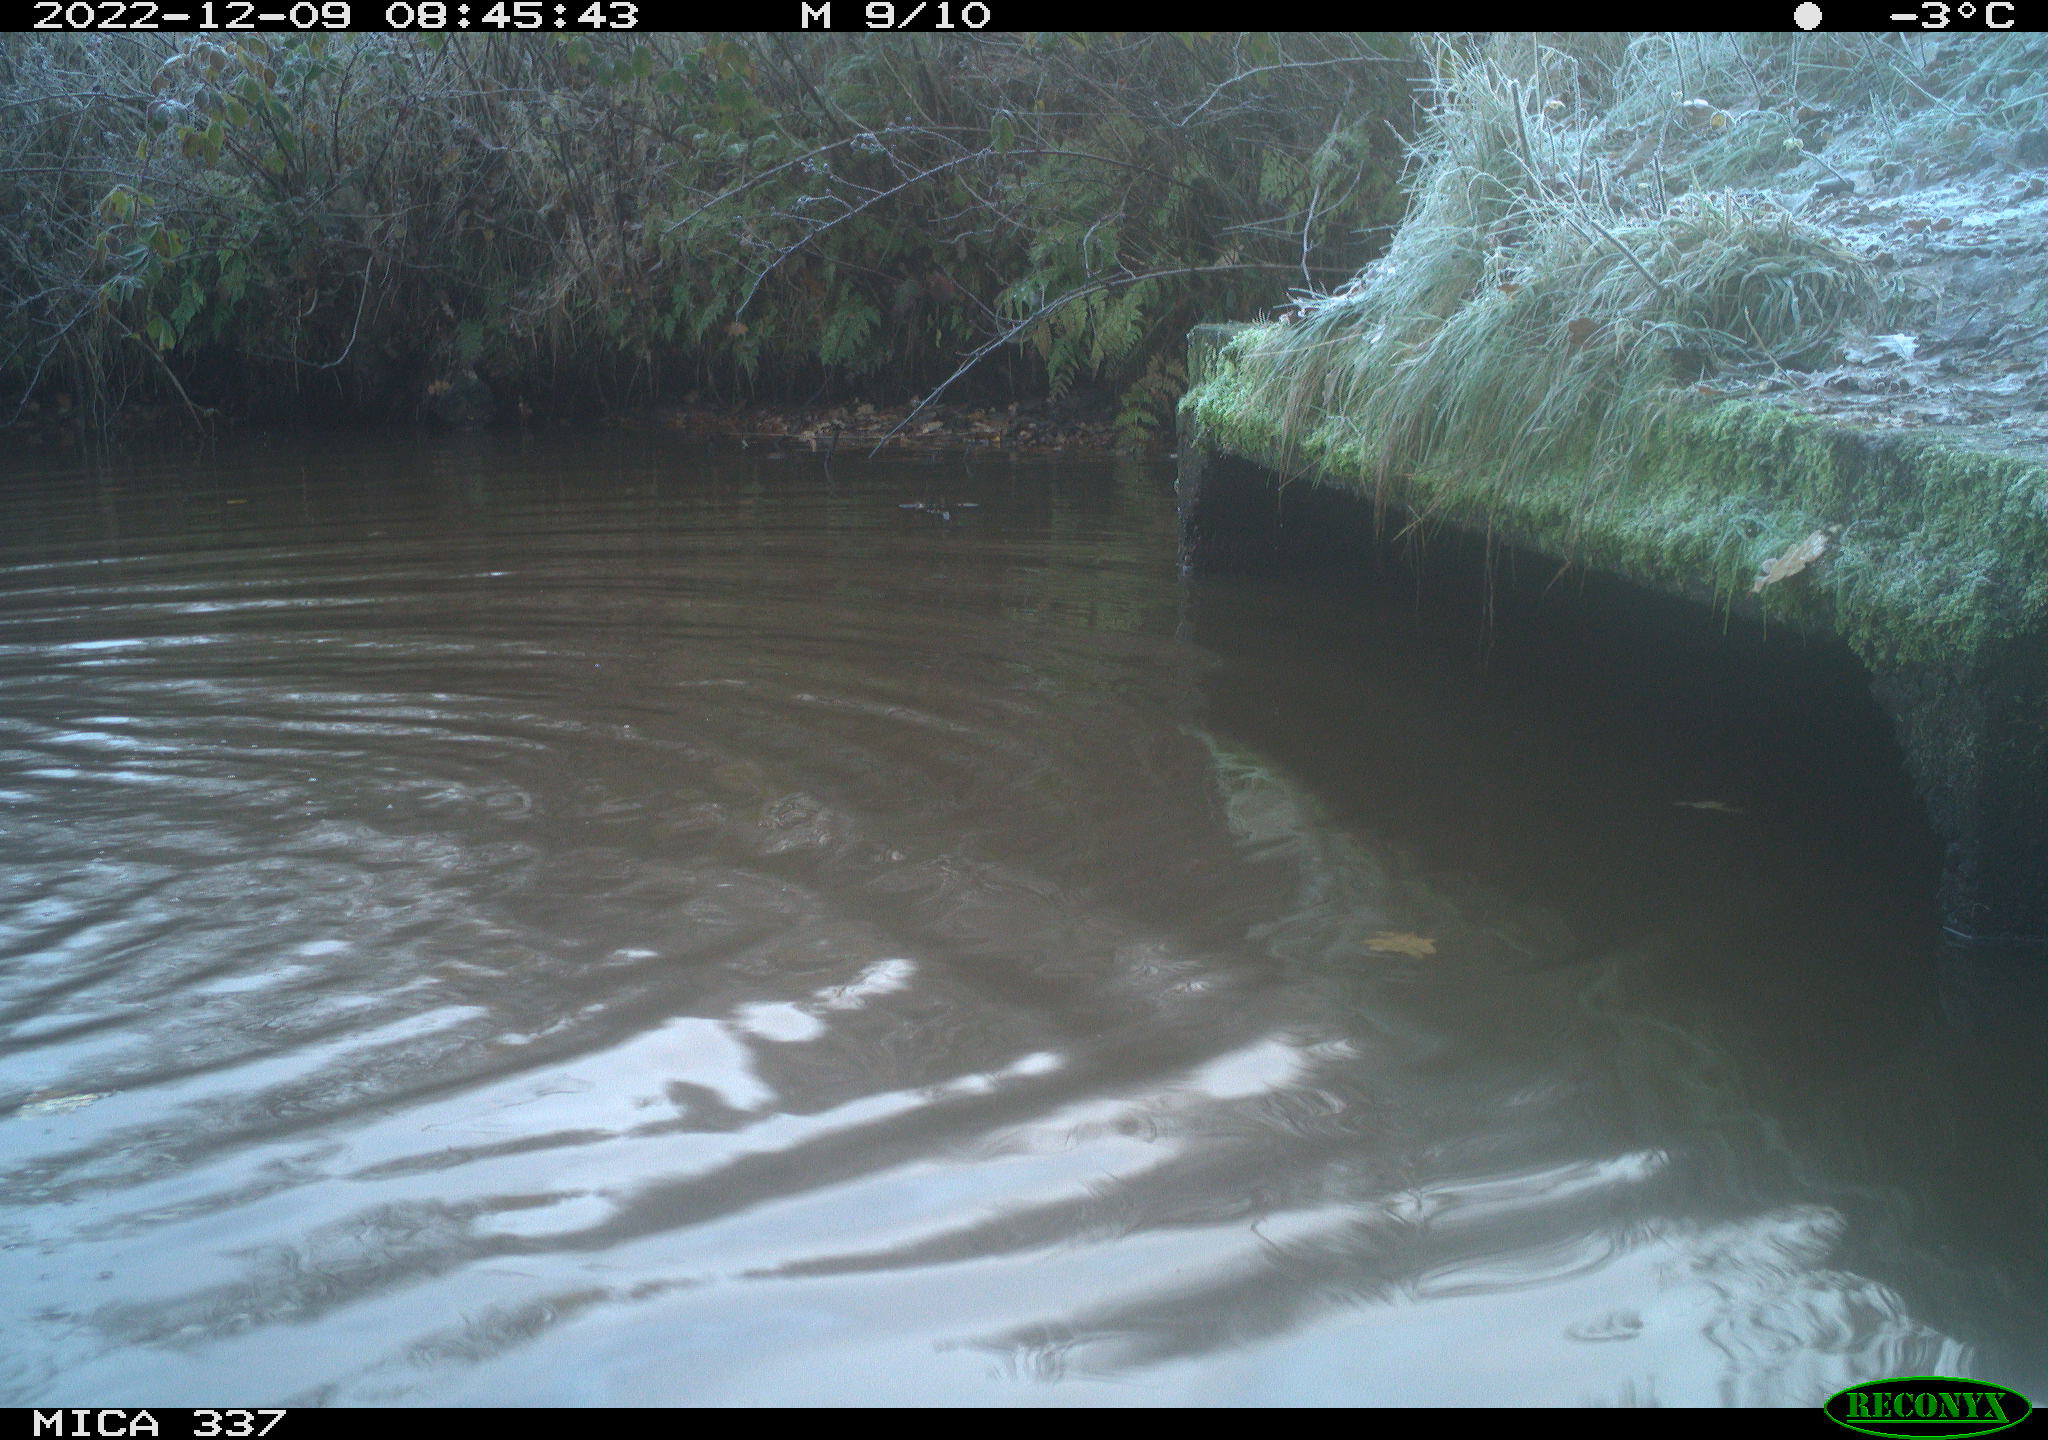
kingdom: Animalia
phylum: Chordata
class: Mammalia
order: Rodentia
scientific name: Rodentia
